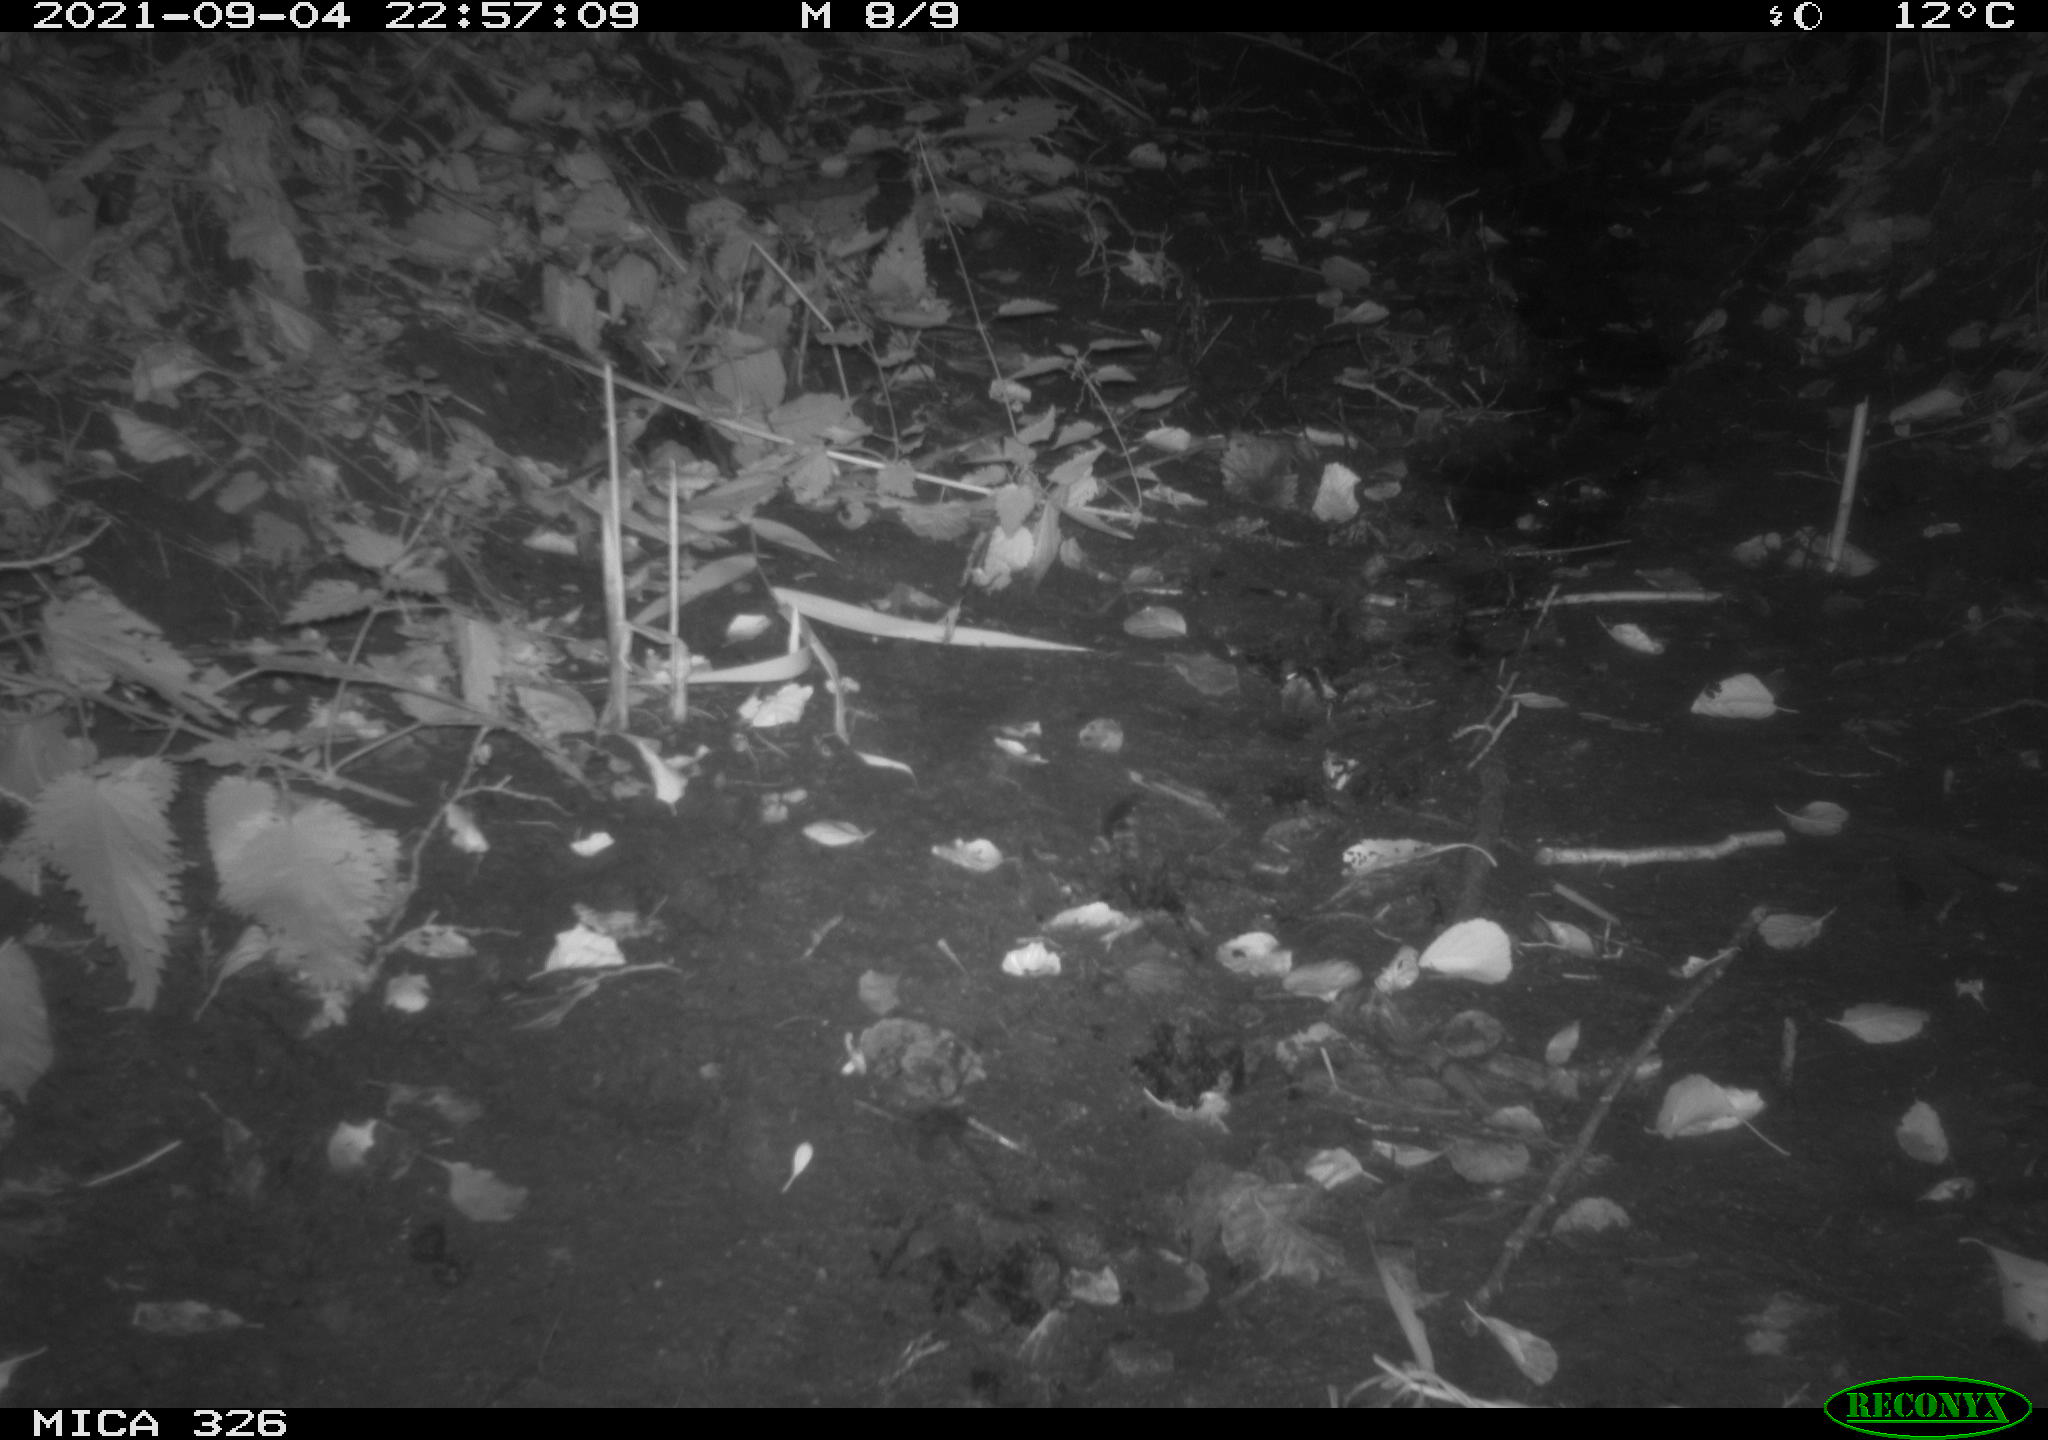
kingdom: Animalia
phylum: Chordata
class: Mammalia
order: Rodentia
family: Myocastoridae
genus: Myocastor
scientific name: Myocastor coypus
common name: Coypu
